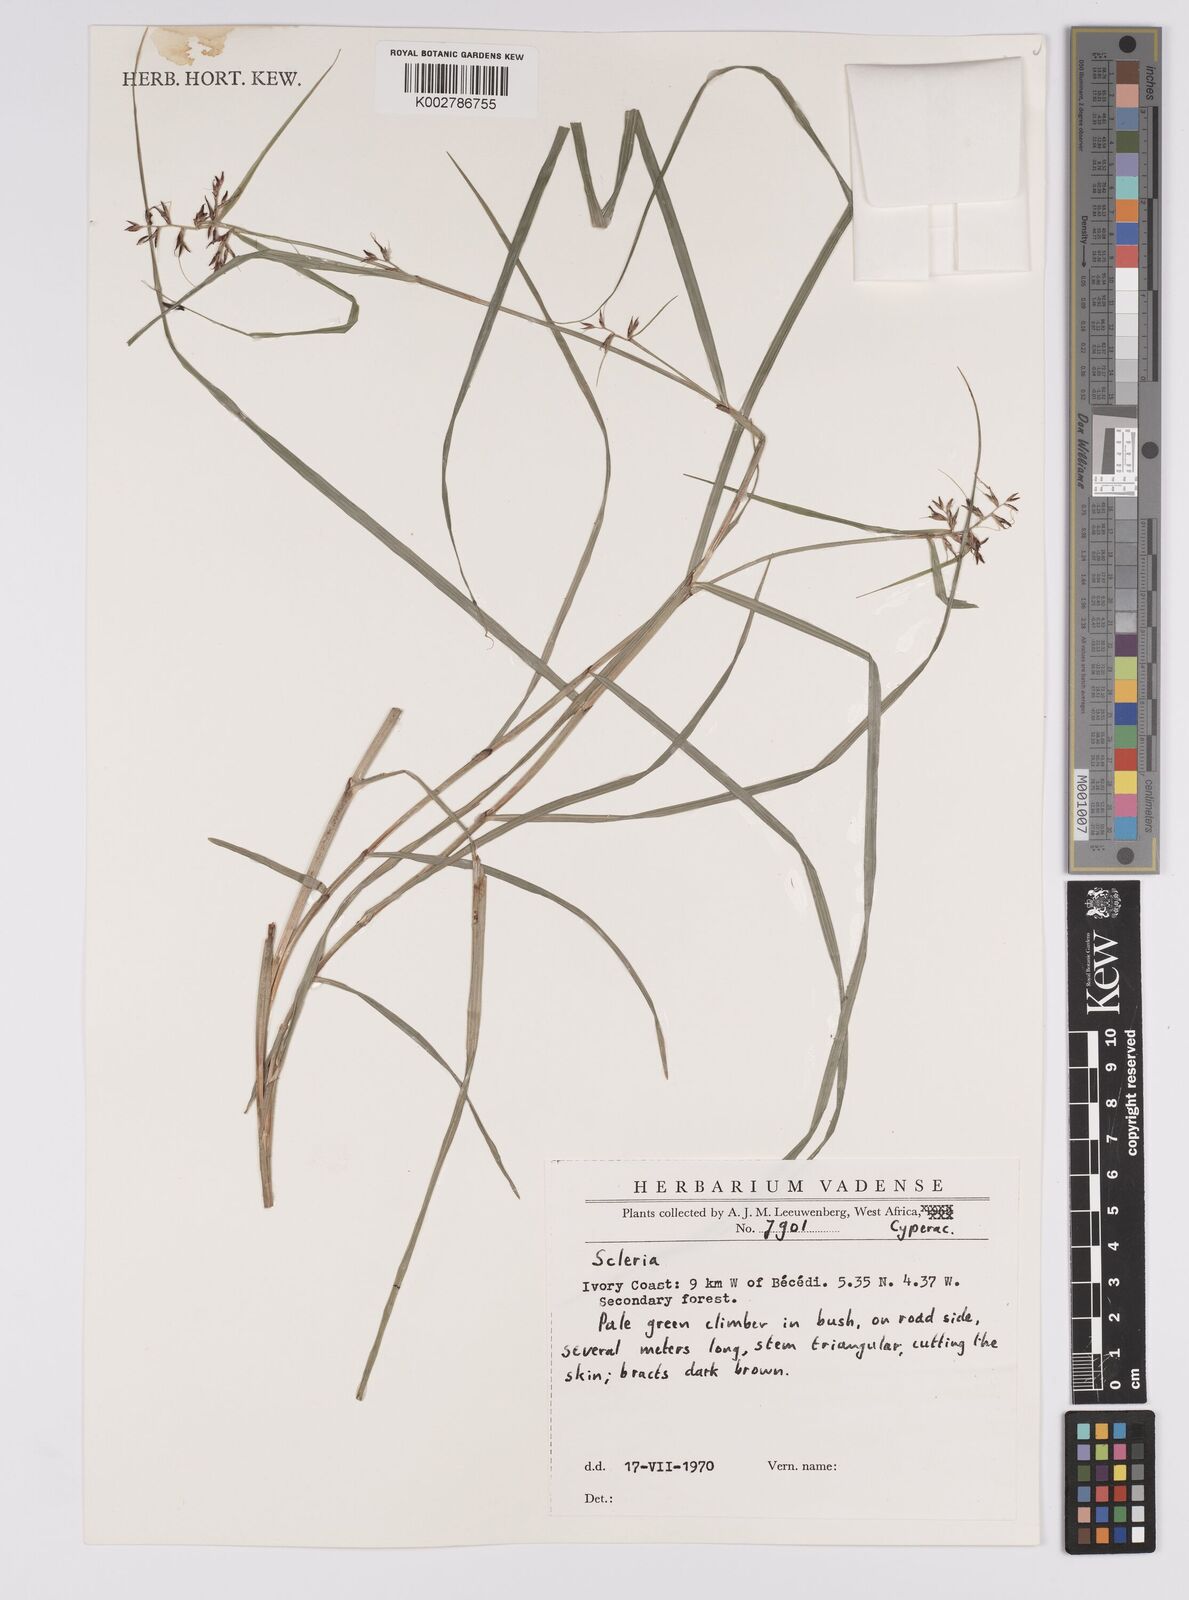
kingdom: Plantae
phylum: Tracheophyta
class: Liliopsida
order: Poales
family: Cyperaceae
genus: Scleria
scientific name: Scleria
